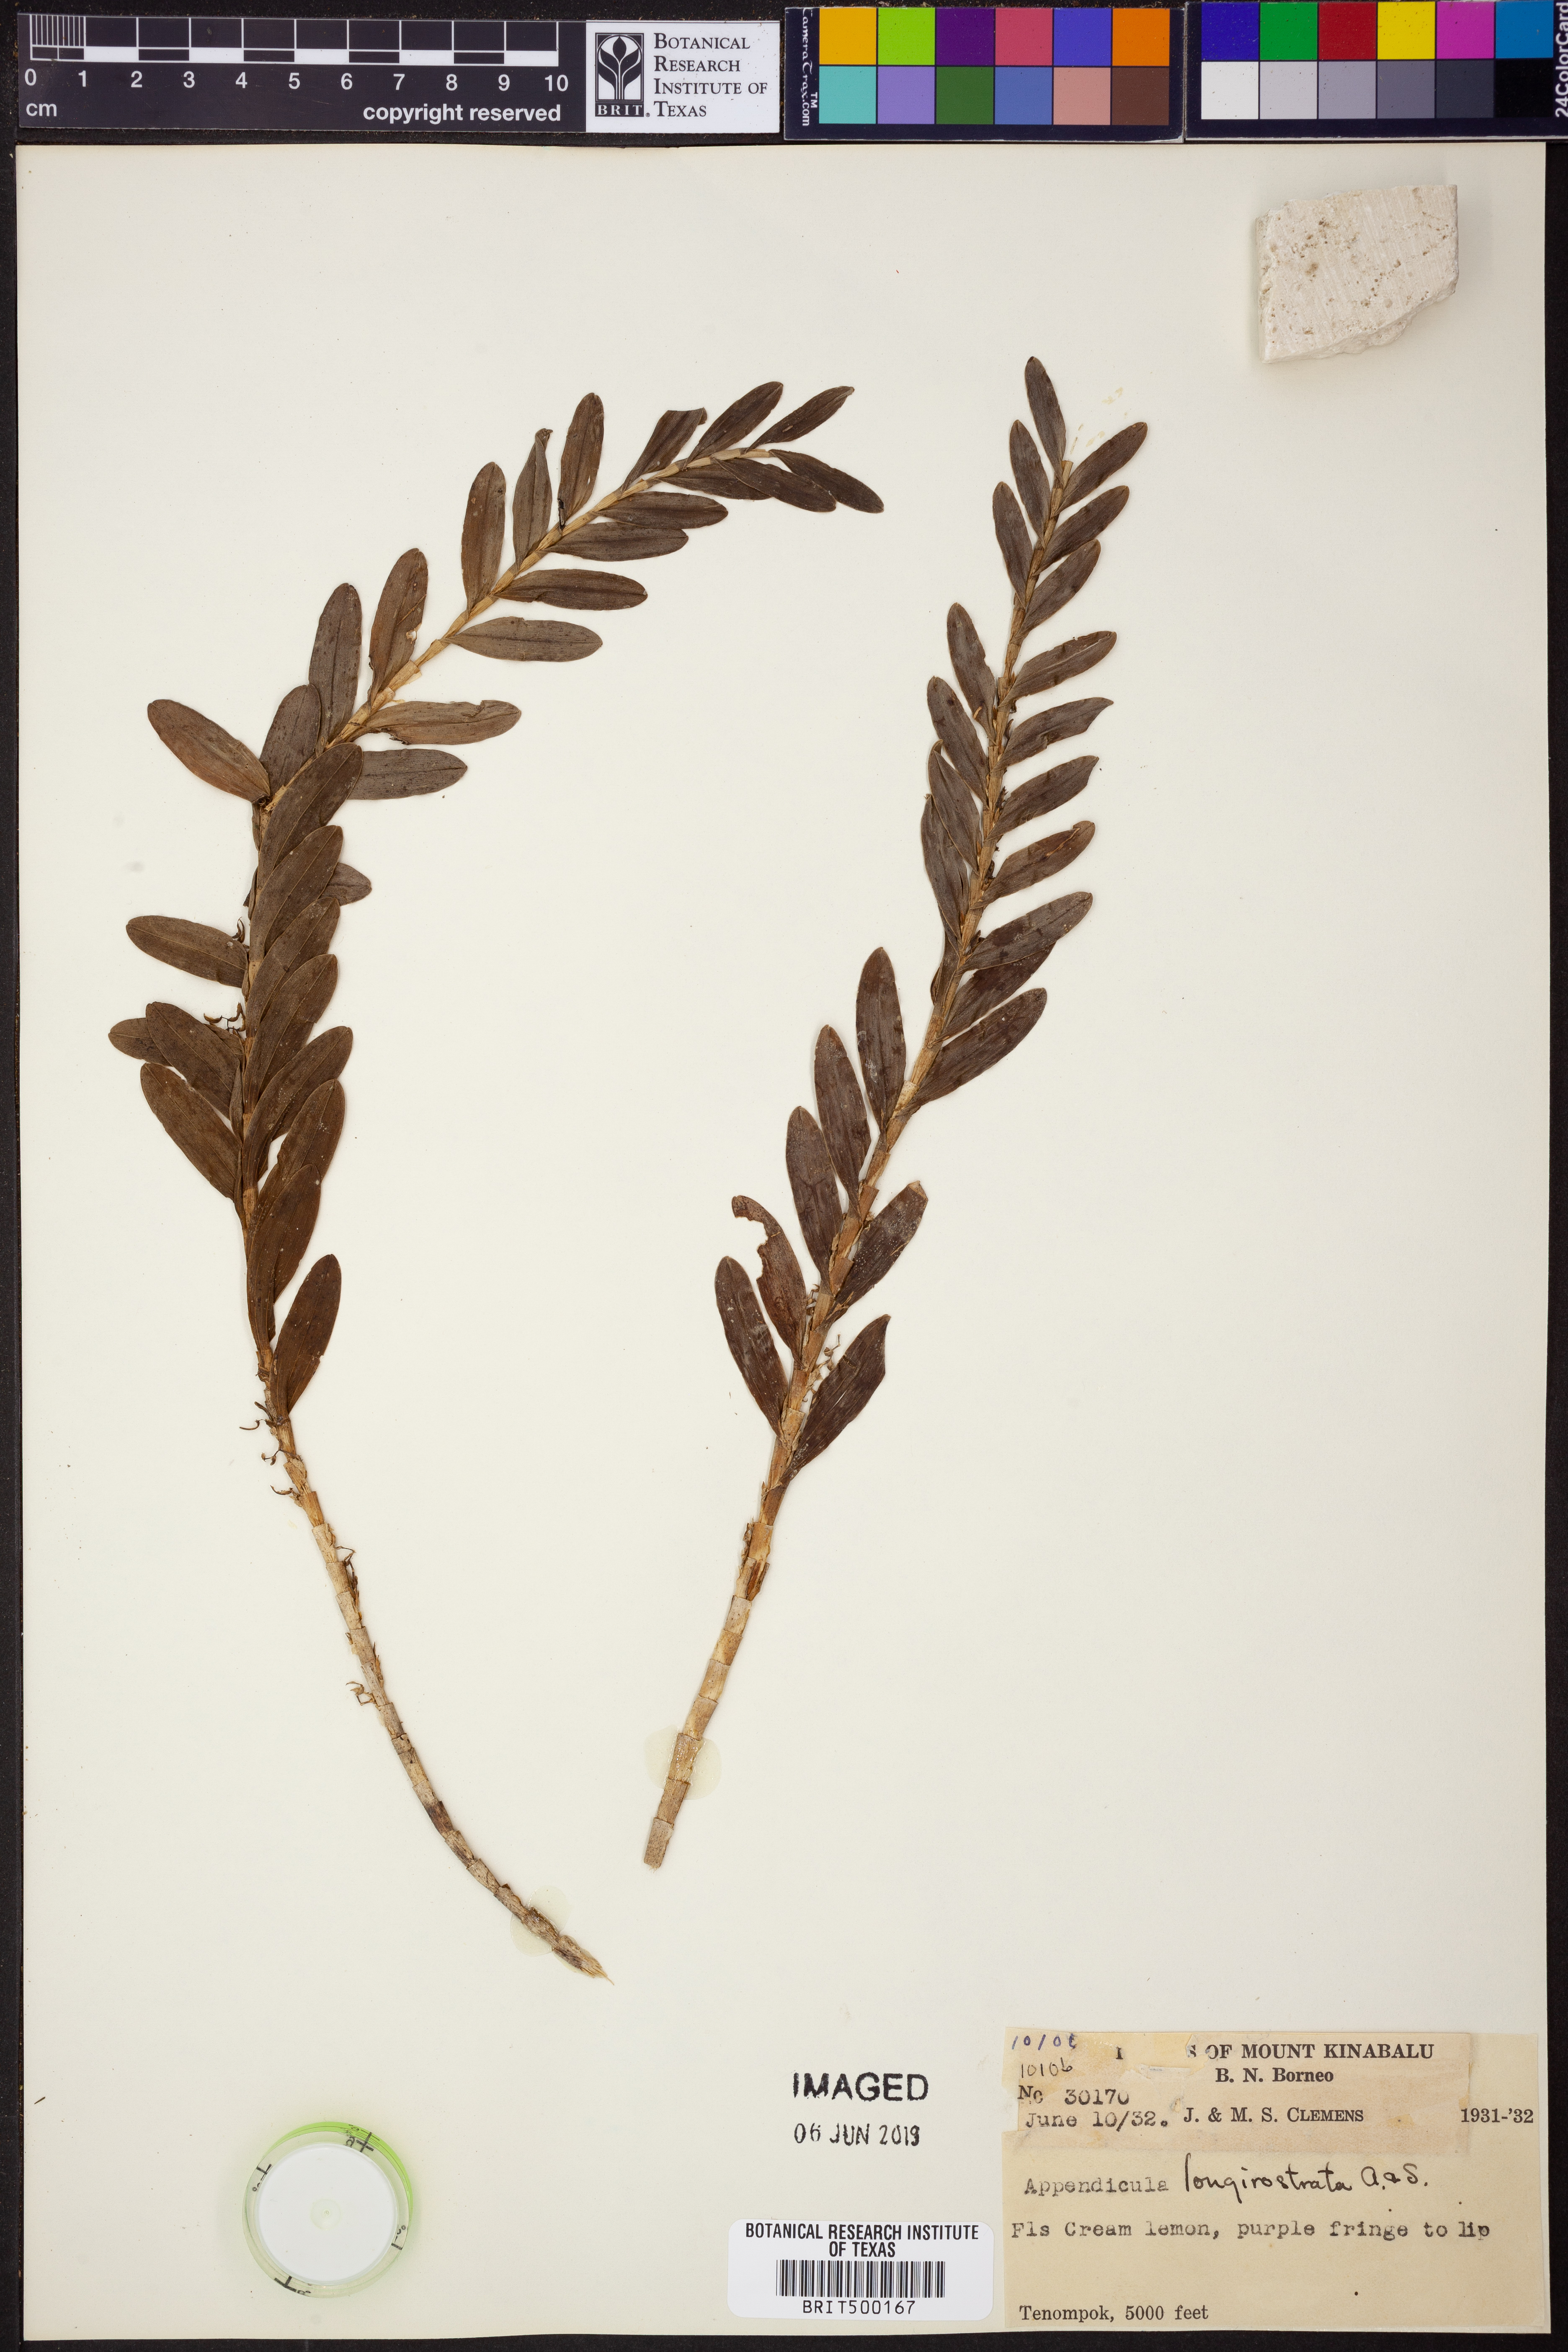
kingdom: Plantae
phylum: Tracheophyta
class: Liliopsida
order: Asparagales
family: Orchidaceae
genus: Appendicula
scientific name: Appendicula longirostrata
